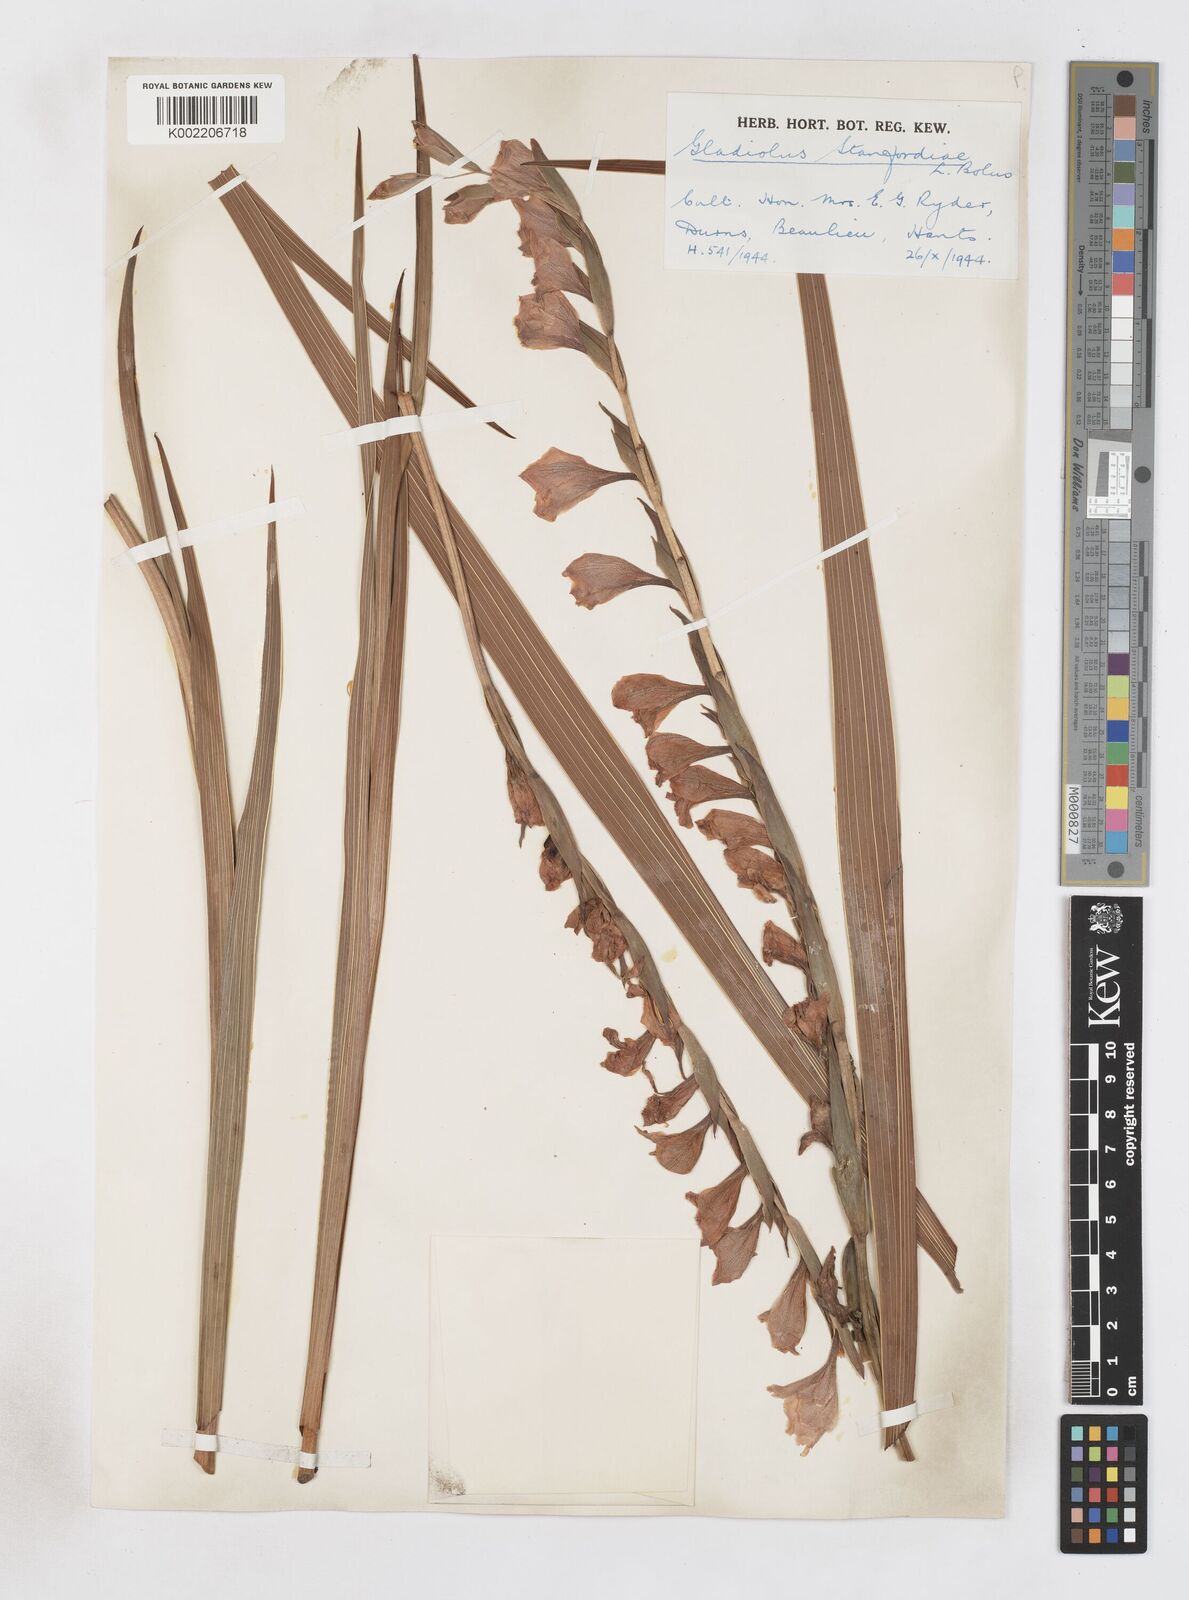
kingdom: Plantae
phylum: Tracheophyta
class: Liliopsida
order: Asparagales
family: Iridaceae
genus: Gladiolus
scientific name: Gladiolus ochroleucus
